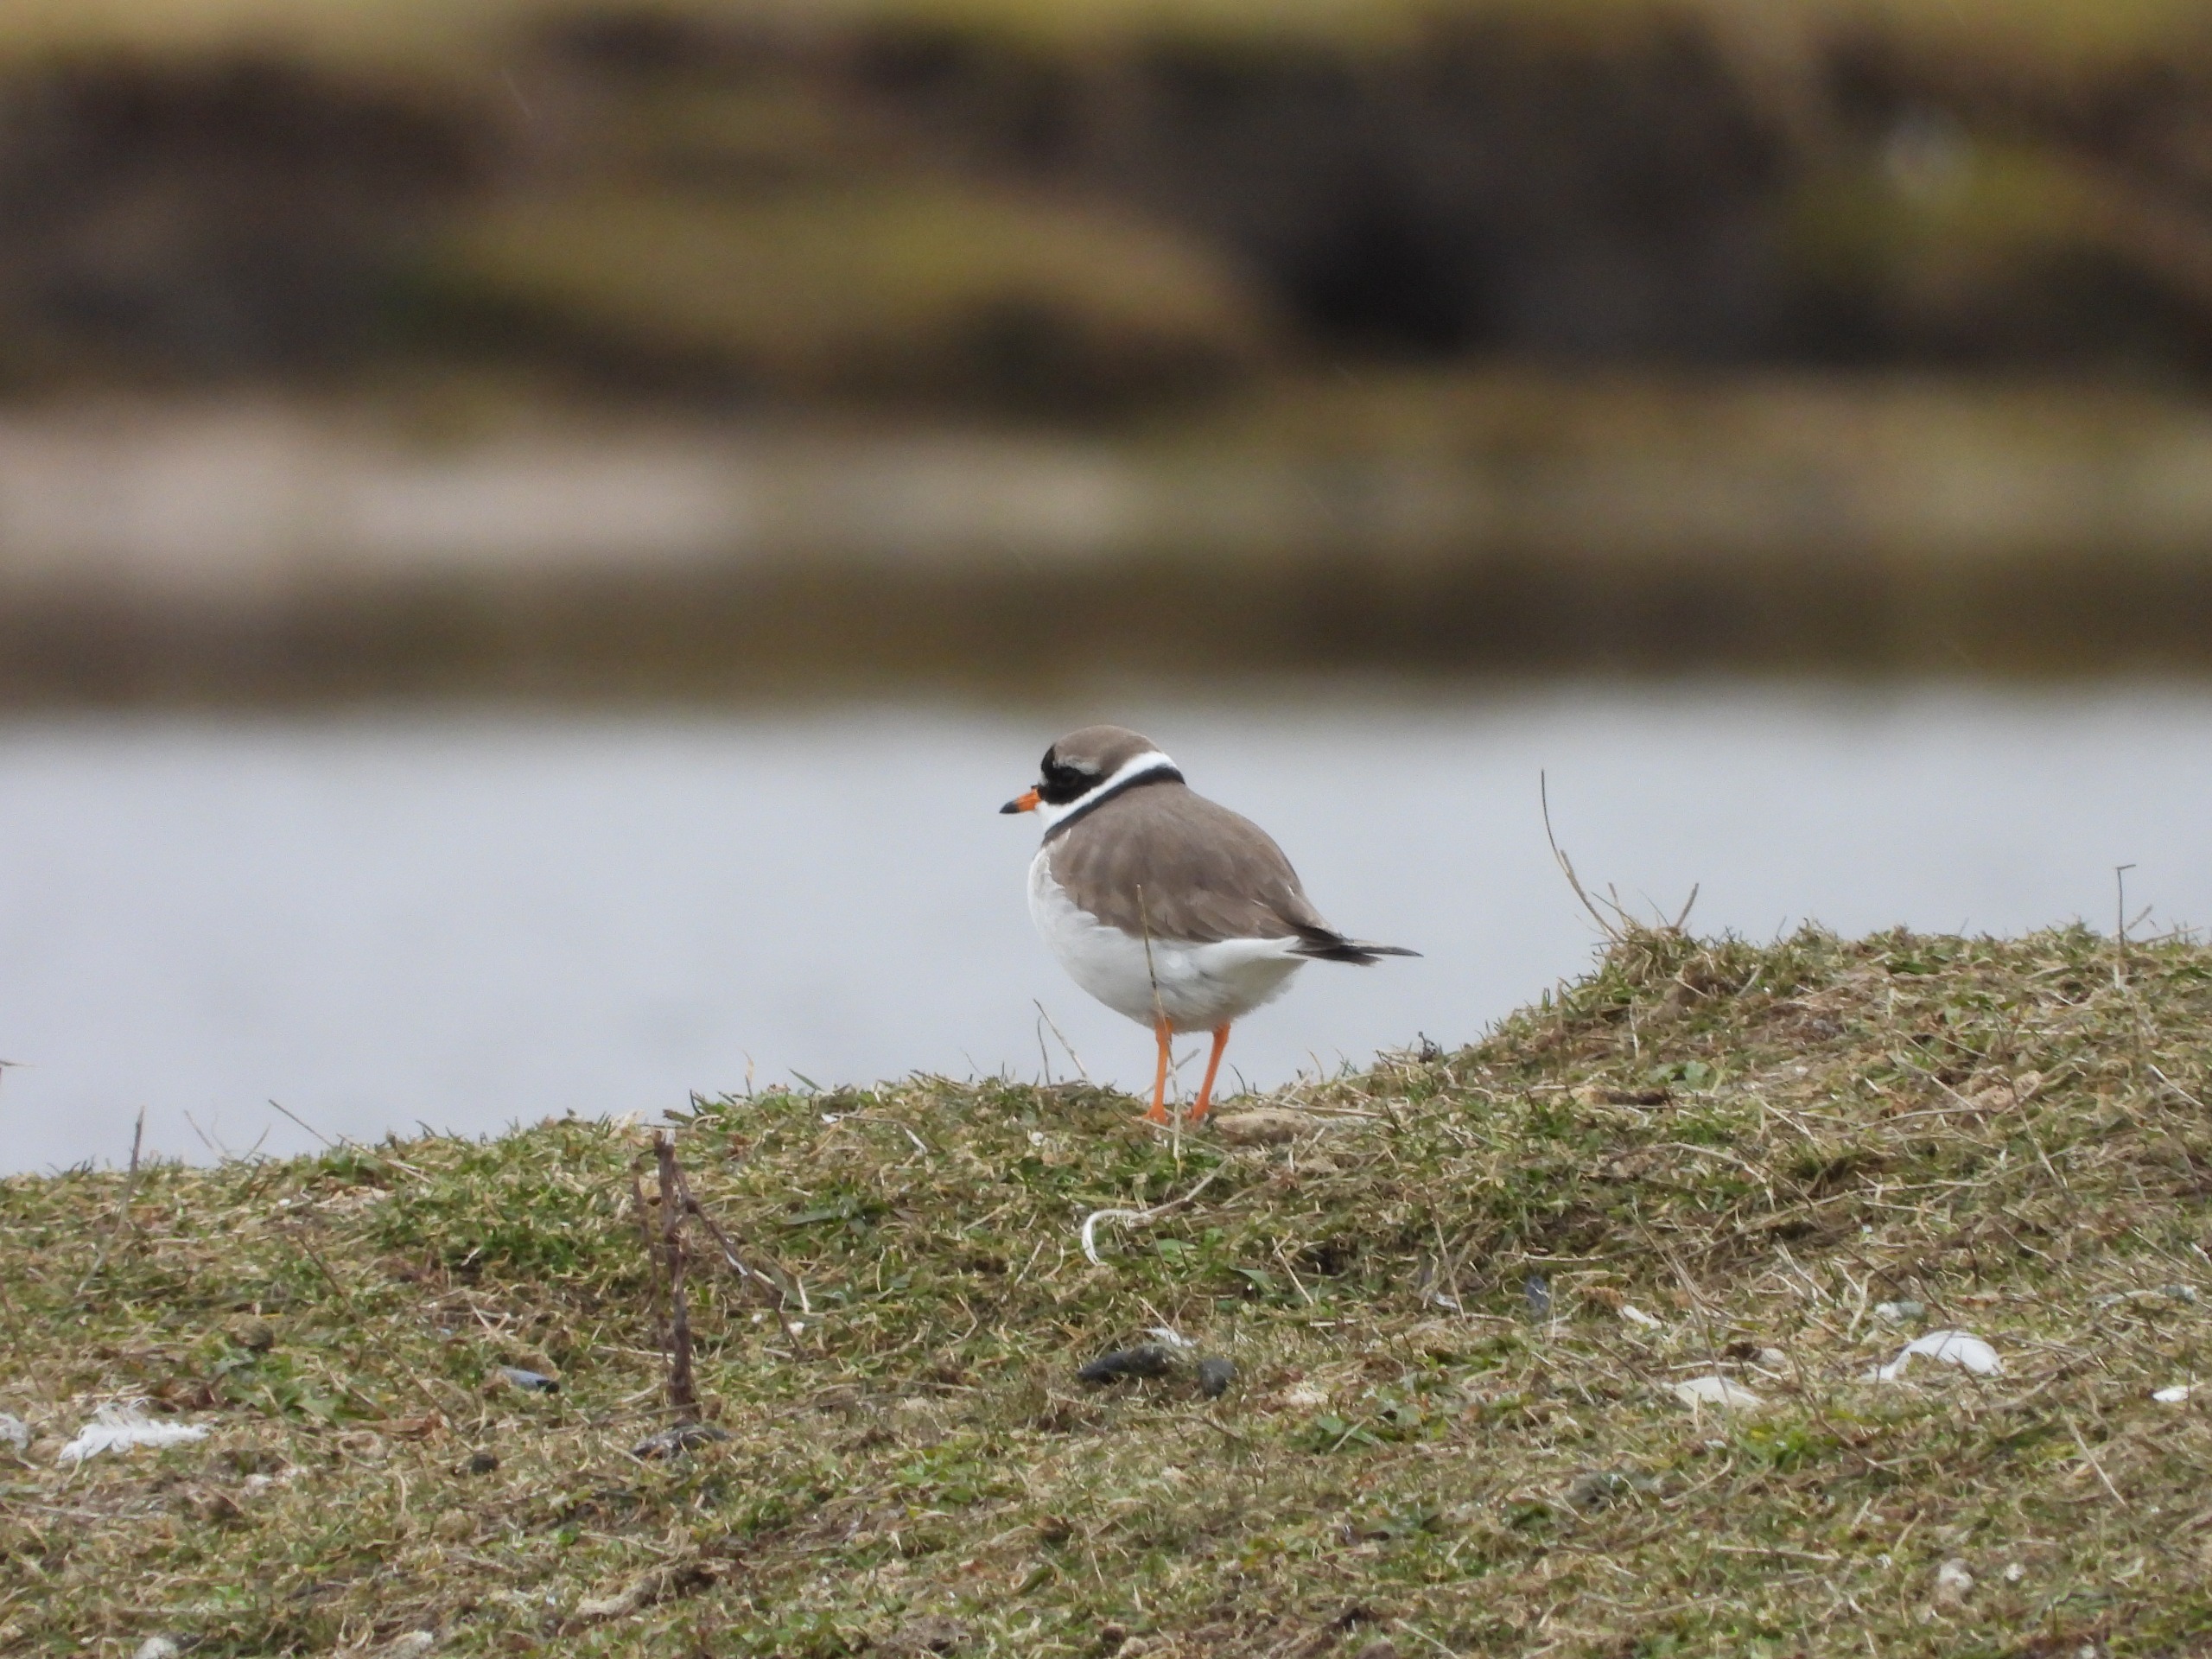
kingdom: Animalia
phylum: Chordata
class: Aves
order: Charadriiformes
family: Charadriidae
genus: Charadrius
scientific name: Charadrius hiaticula
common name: Stor præstekrave
